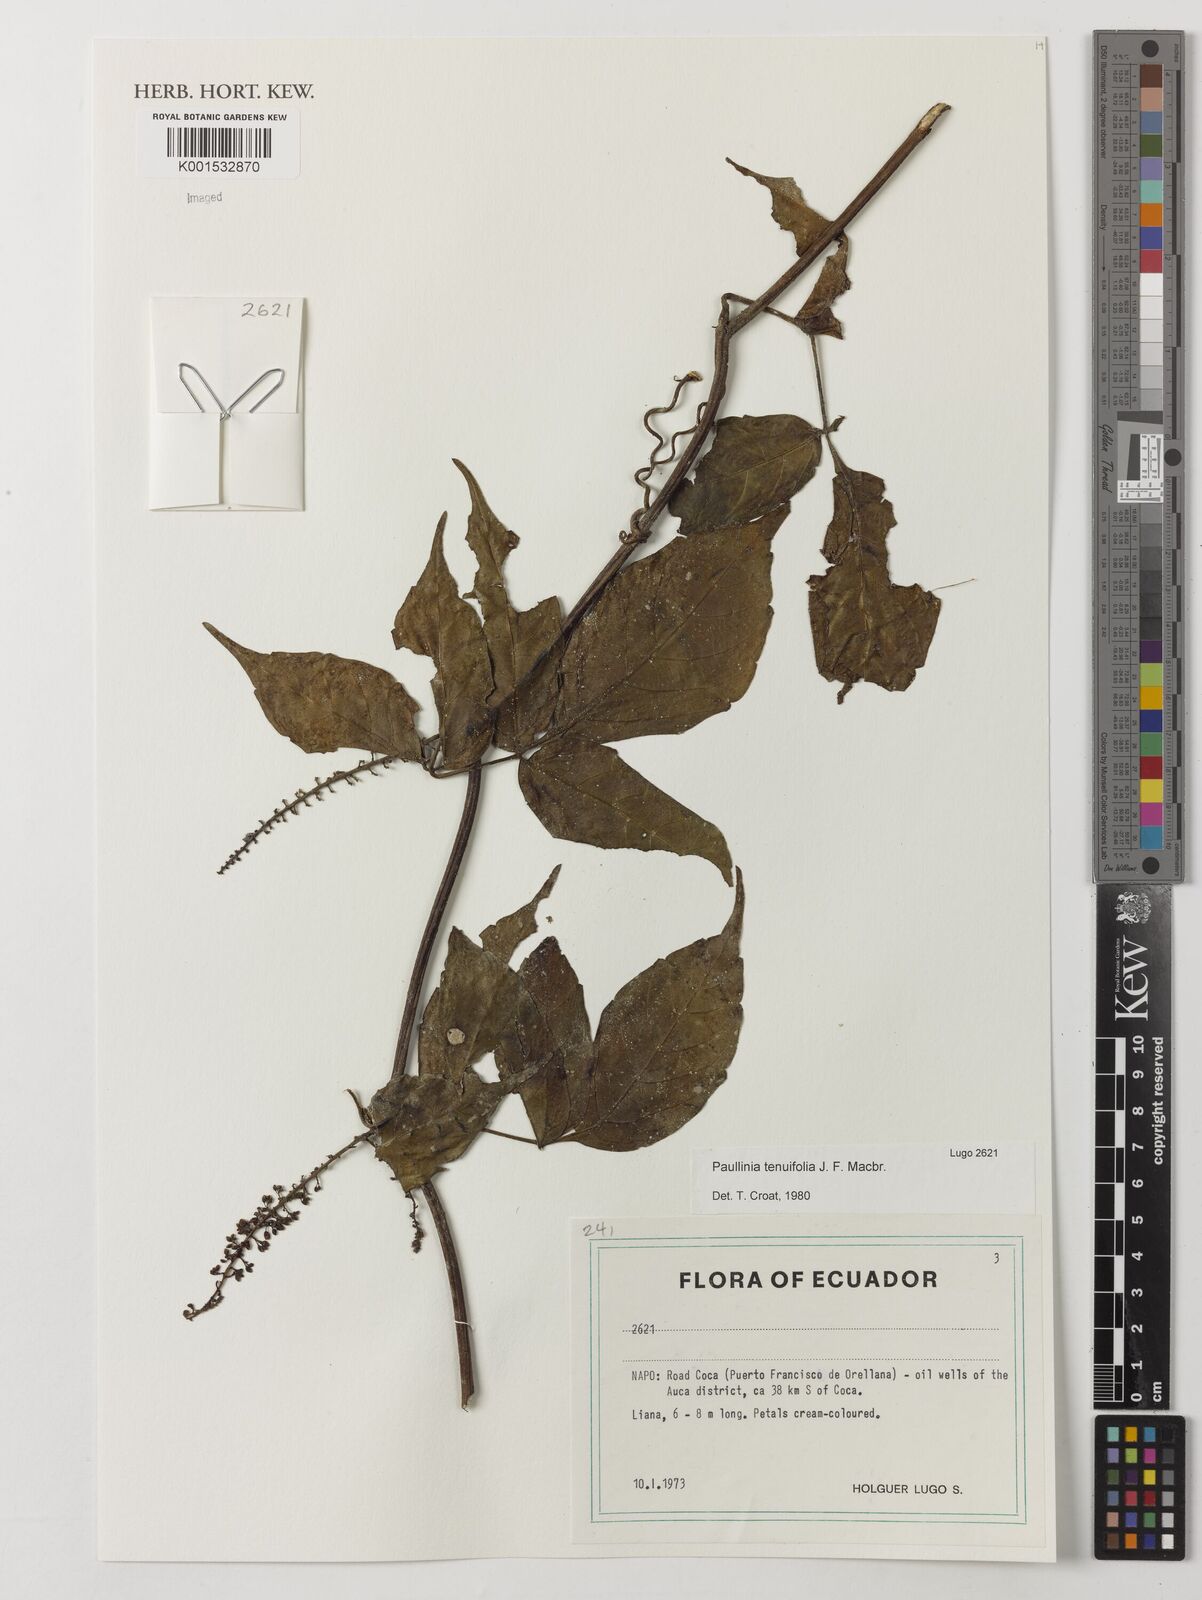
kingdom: Plantae
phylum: Tracheophyta
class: Magnoliopsida
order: Sapindales
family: Sapindaceae
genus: Paullinia
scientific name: Paullinia tenuifolia
